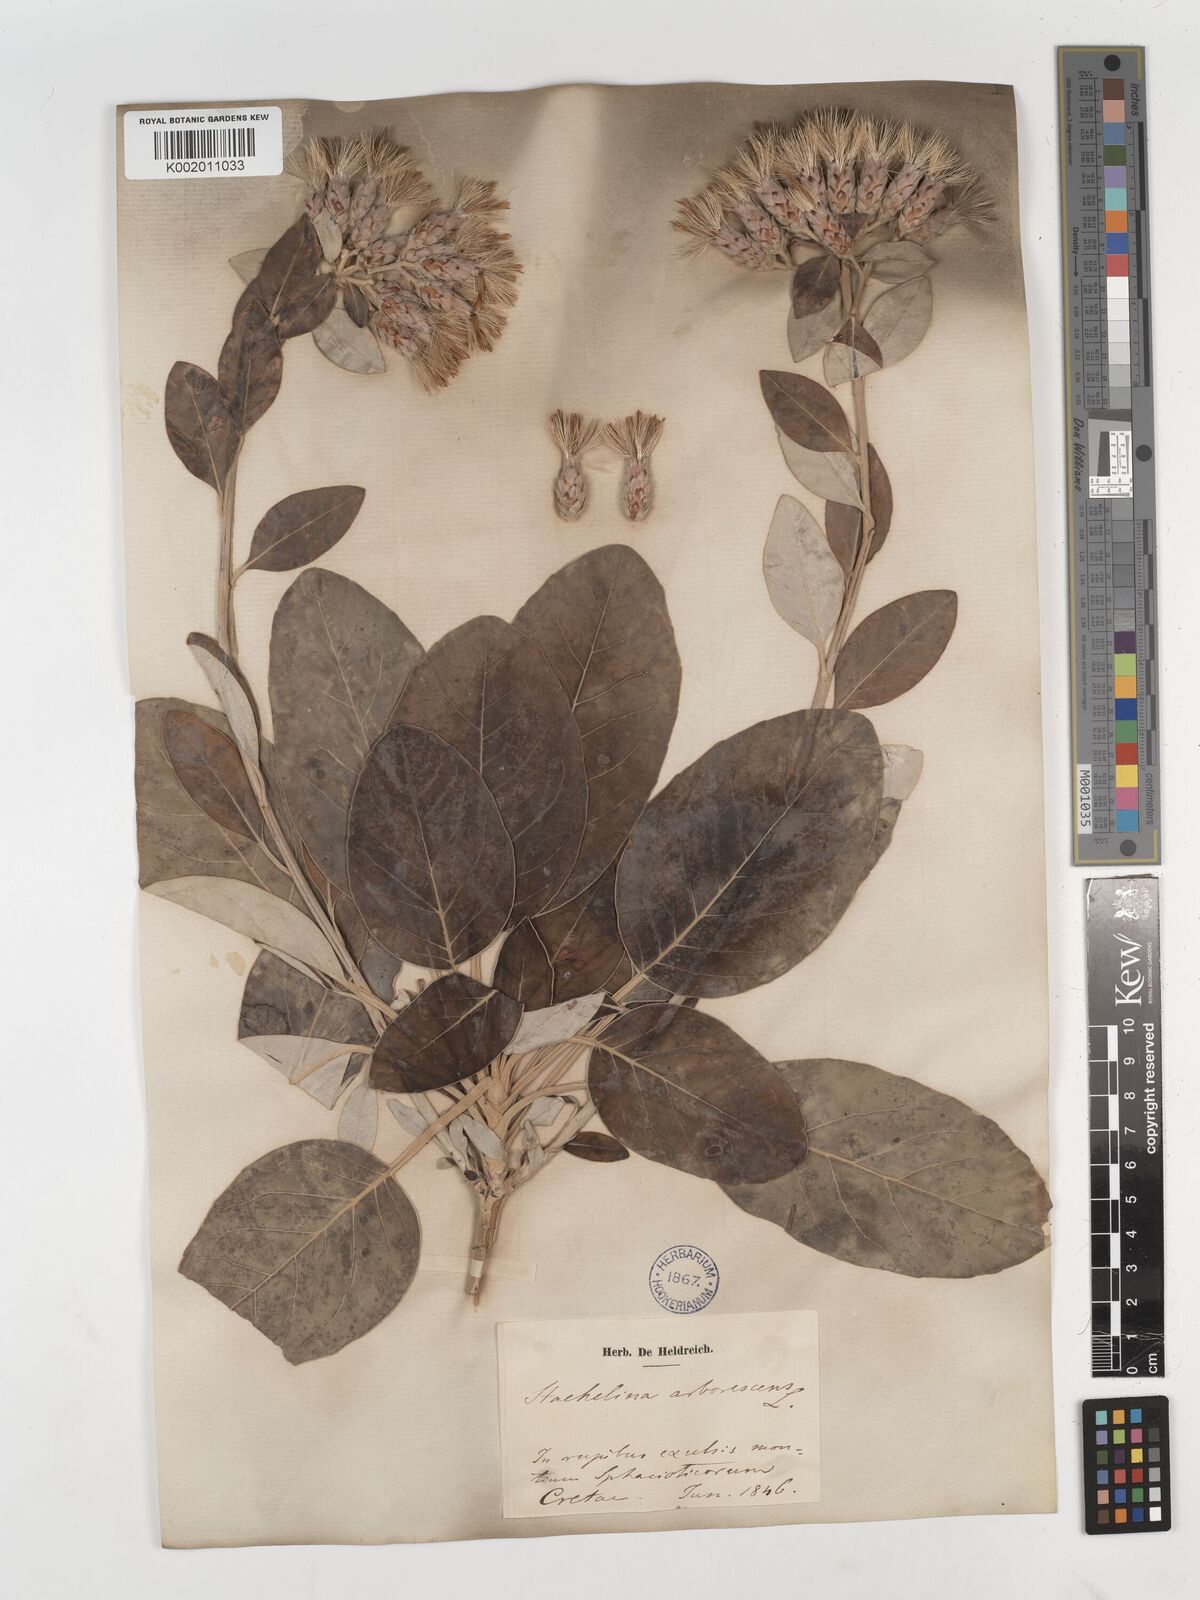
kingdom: Plantae
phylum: Tracheophyta
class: Magnoliopsida
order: Asterales
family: Asteraceae
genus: Staehelina
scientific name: Staehelina petiolata
